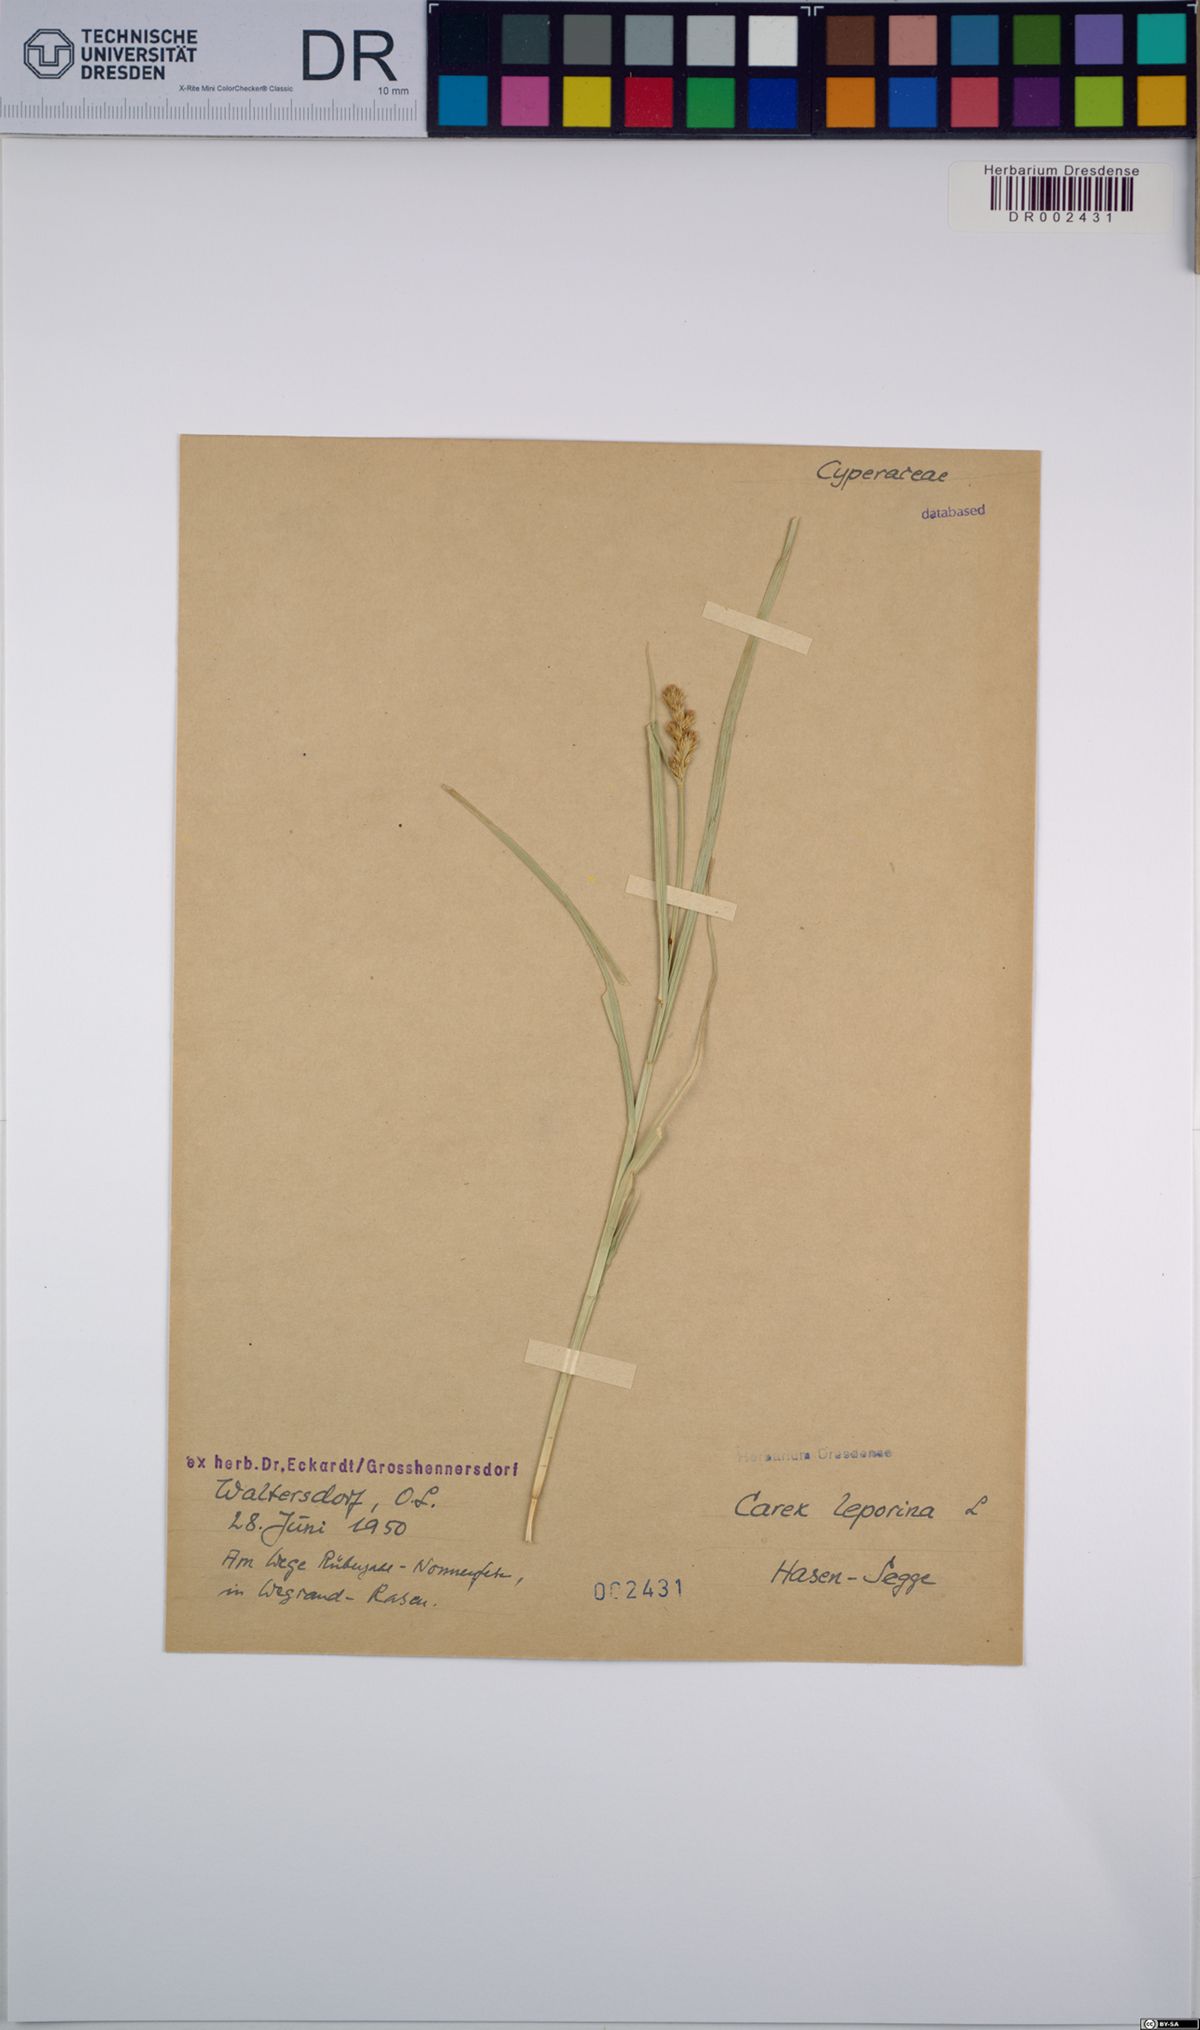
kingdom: Plantae
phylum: Tracheophyta
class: Liliopsida
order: Poales
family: Cyperaceae
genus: Carex
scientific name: Carex leporina
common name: Oval sedge
